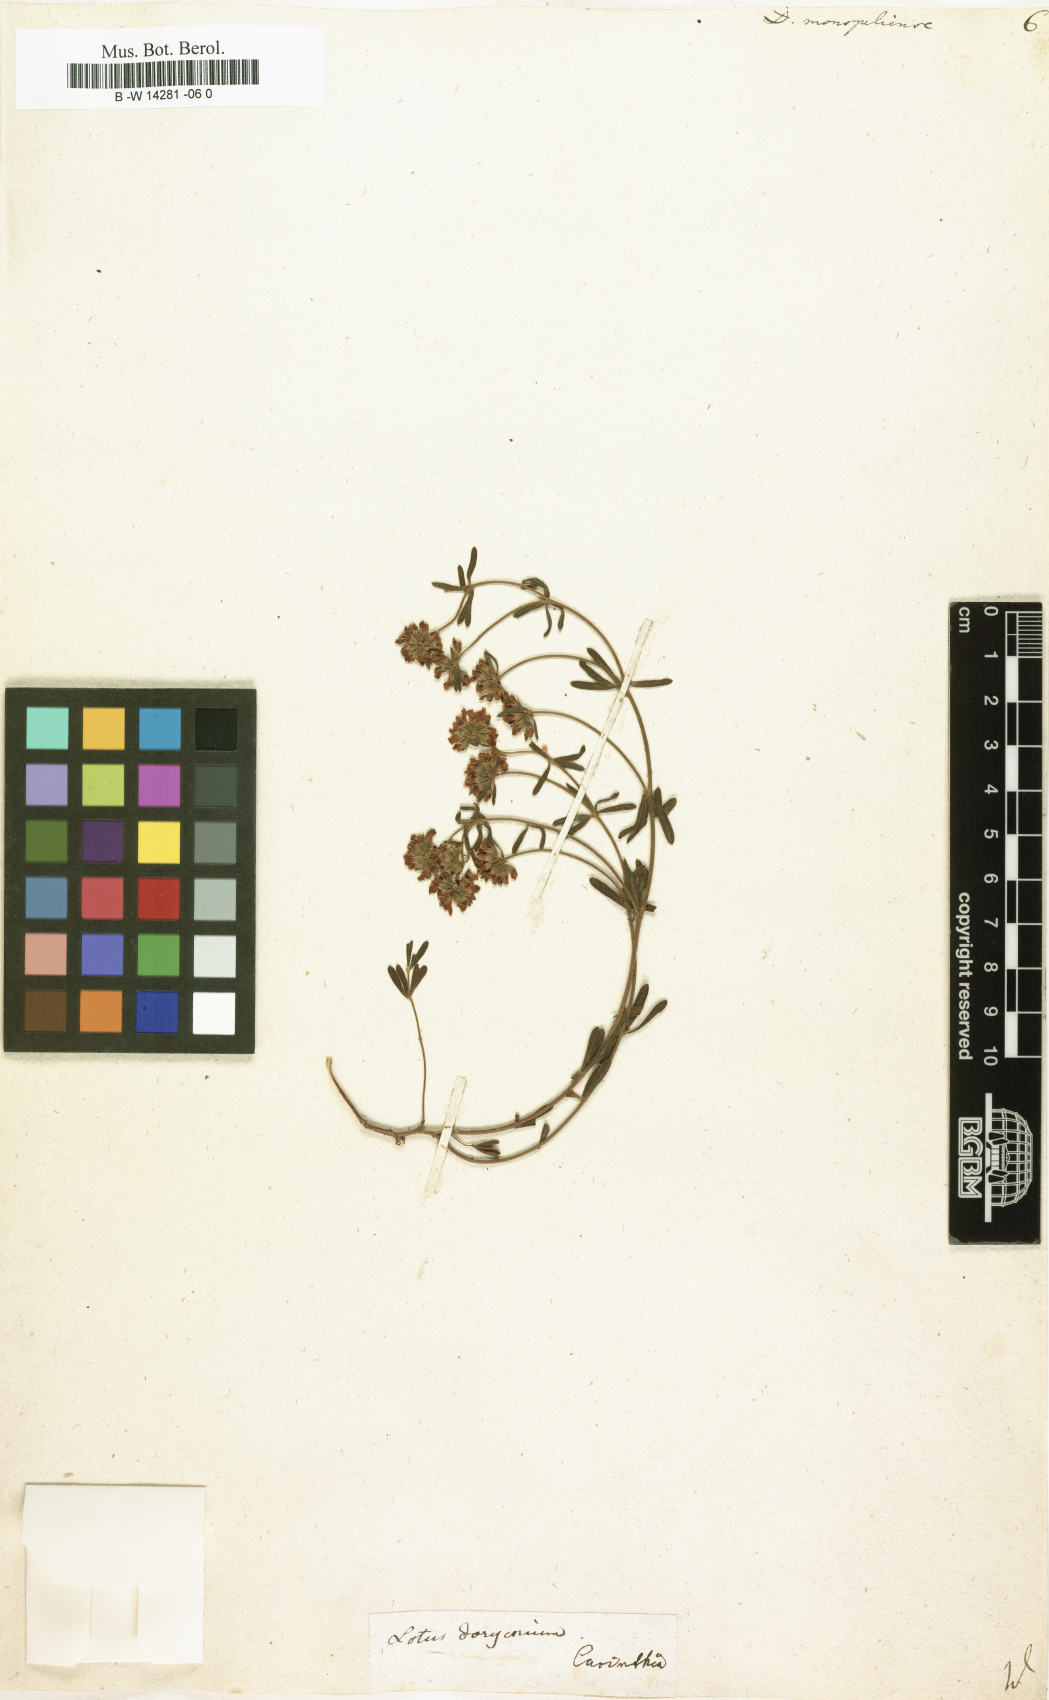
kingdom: Plantae
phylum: Tracheophyta
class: Magnoliopsida
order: Fabales
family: Fabaceae
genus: Lotus
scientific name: Lotus dorycnium
